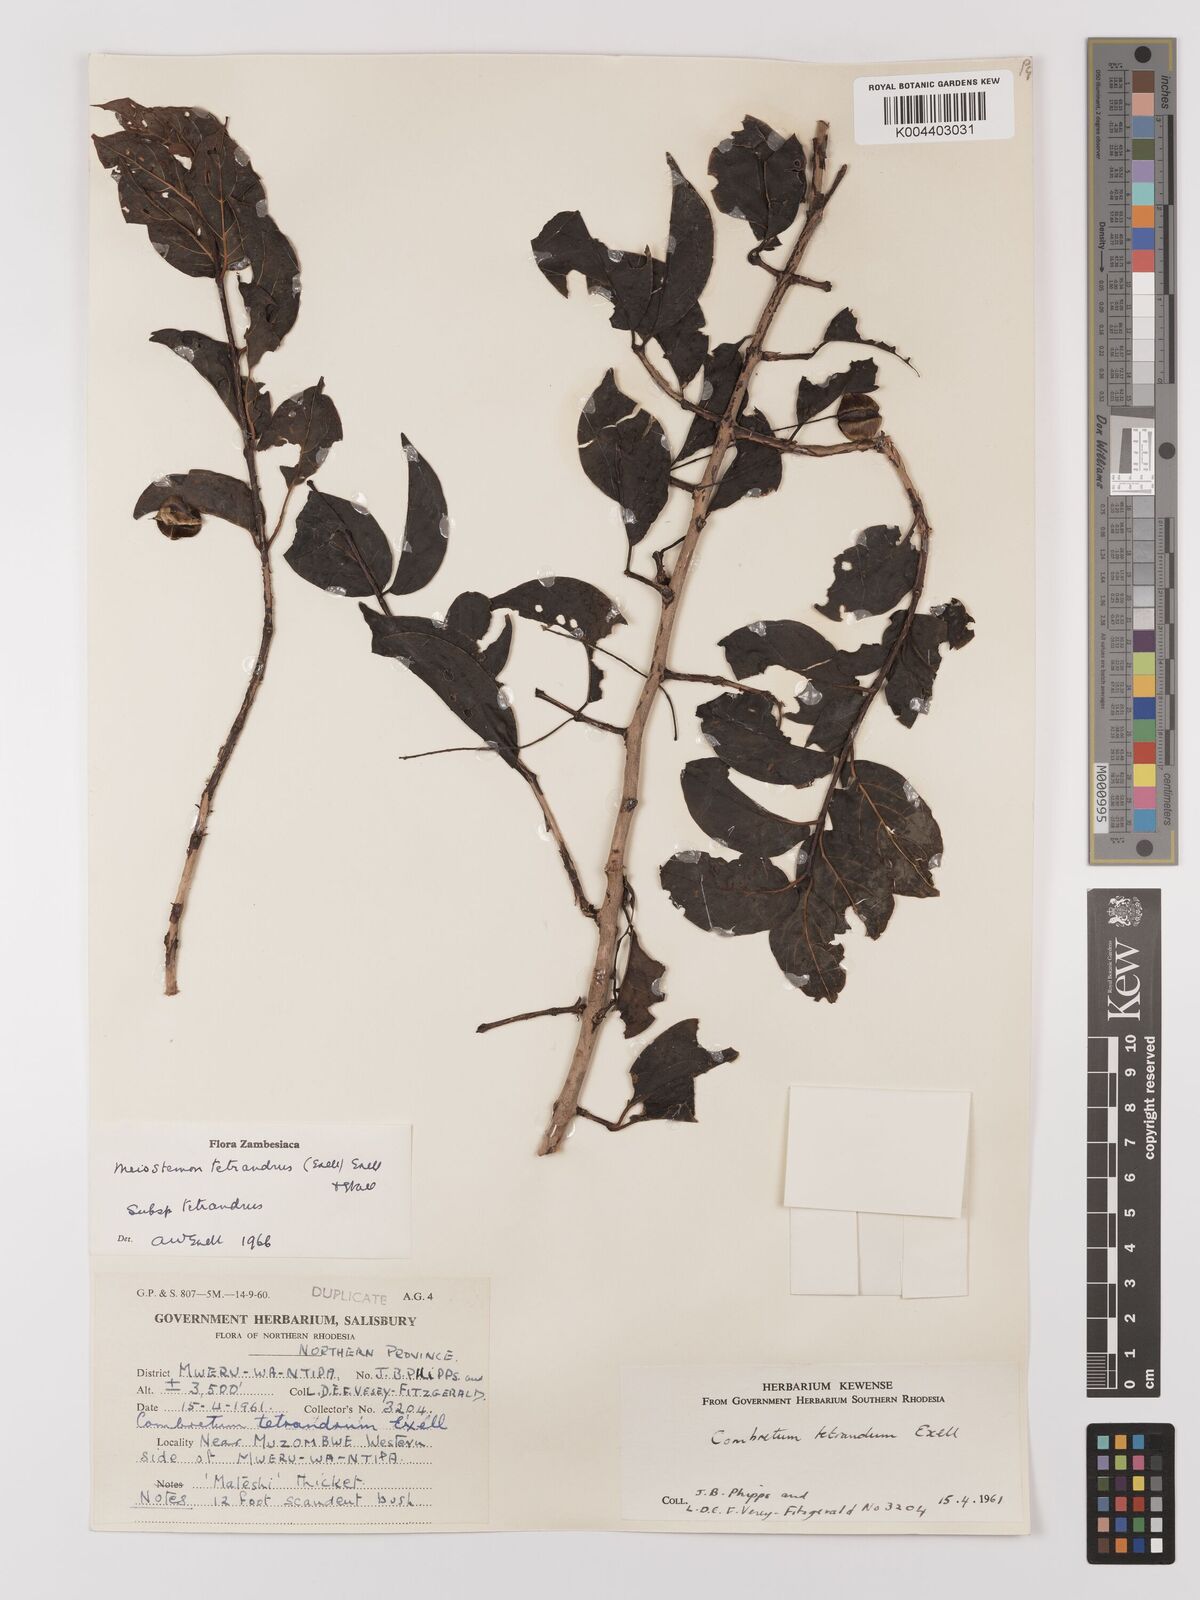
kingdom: Plantae
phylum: Tracheophyta
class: Magnoliopsida
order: Myrtales
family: Combretaceae
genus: Combretum
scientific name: Combretum tetrandrum
